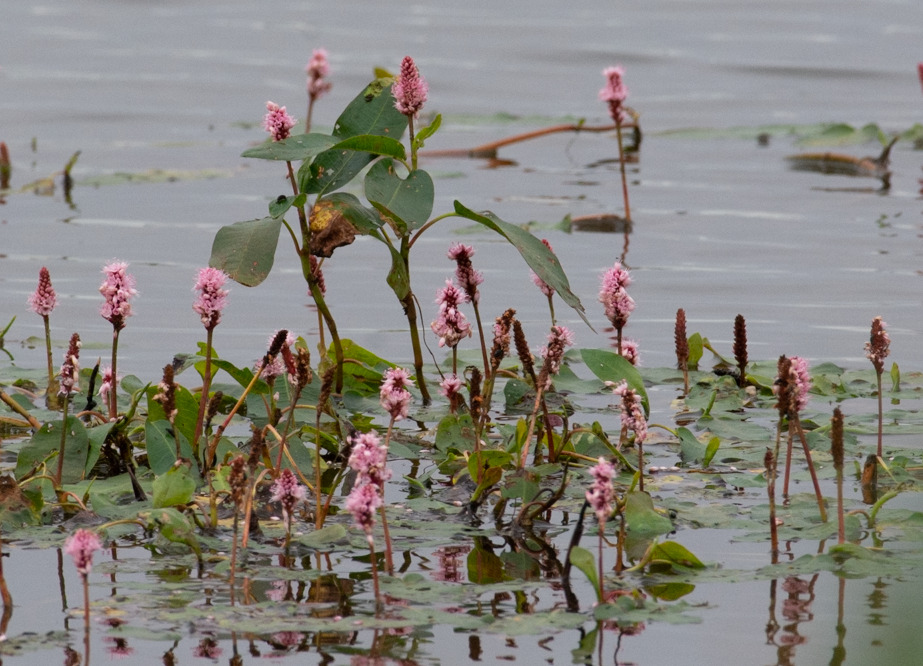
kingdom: Plantae
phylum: Tracheophyta
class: Magnoliopsida
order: Caryophyllales
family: Polygonaceae
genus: Persicaria
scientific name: Persicaria amphibia
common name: Vand-pileurt
